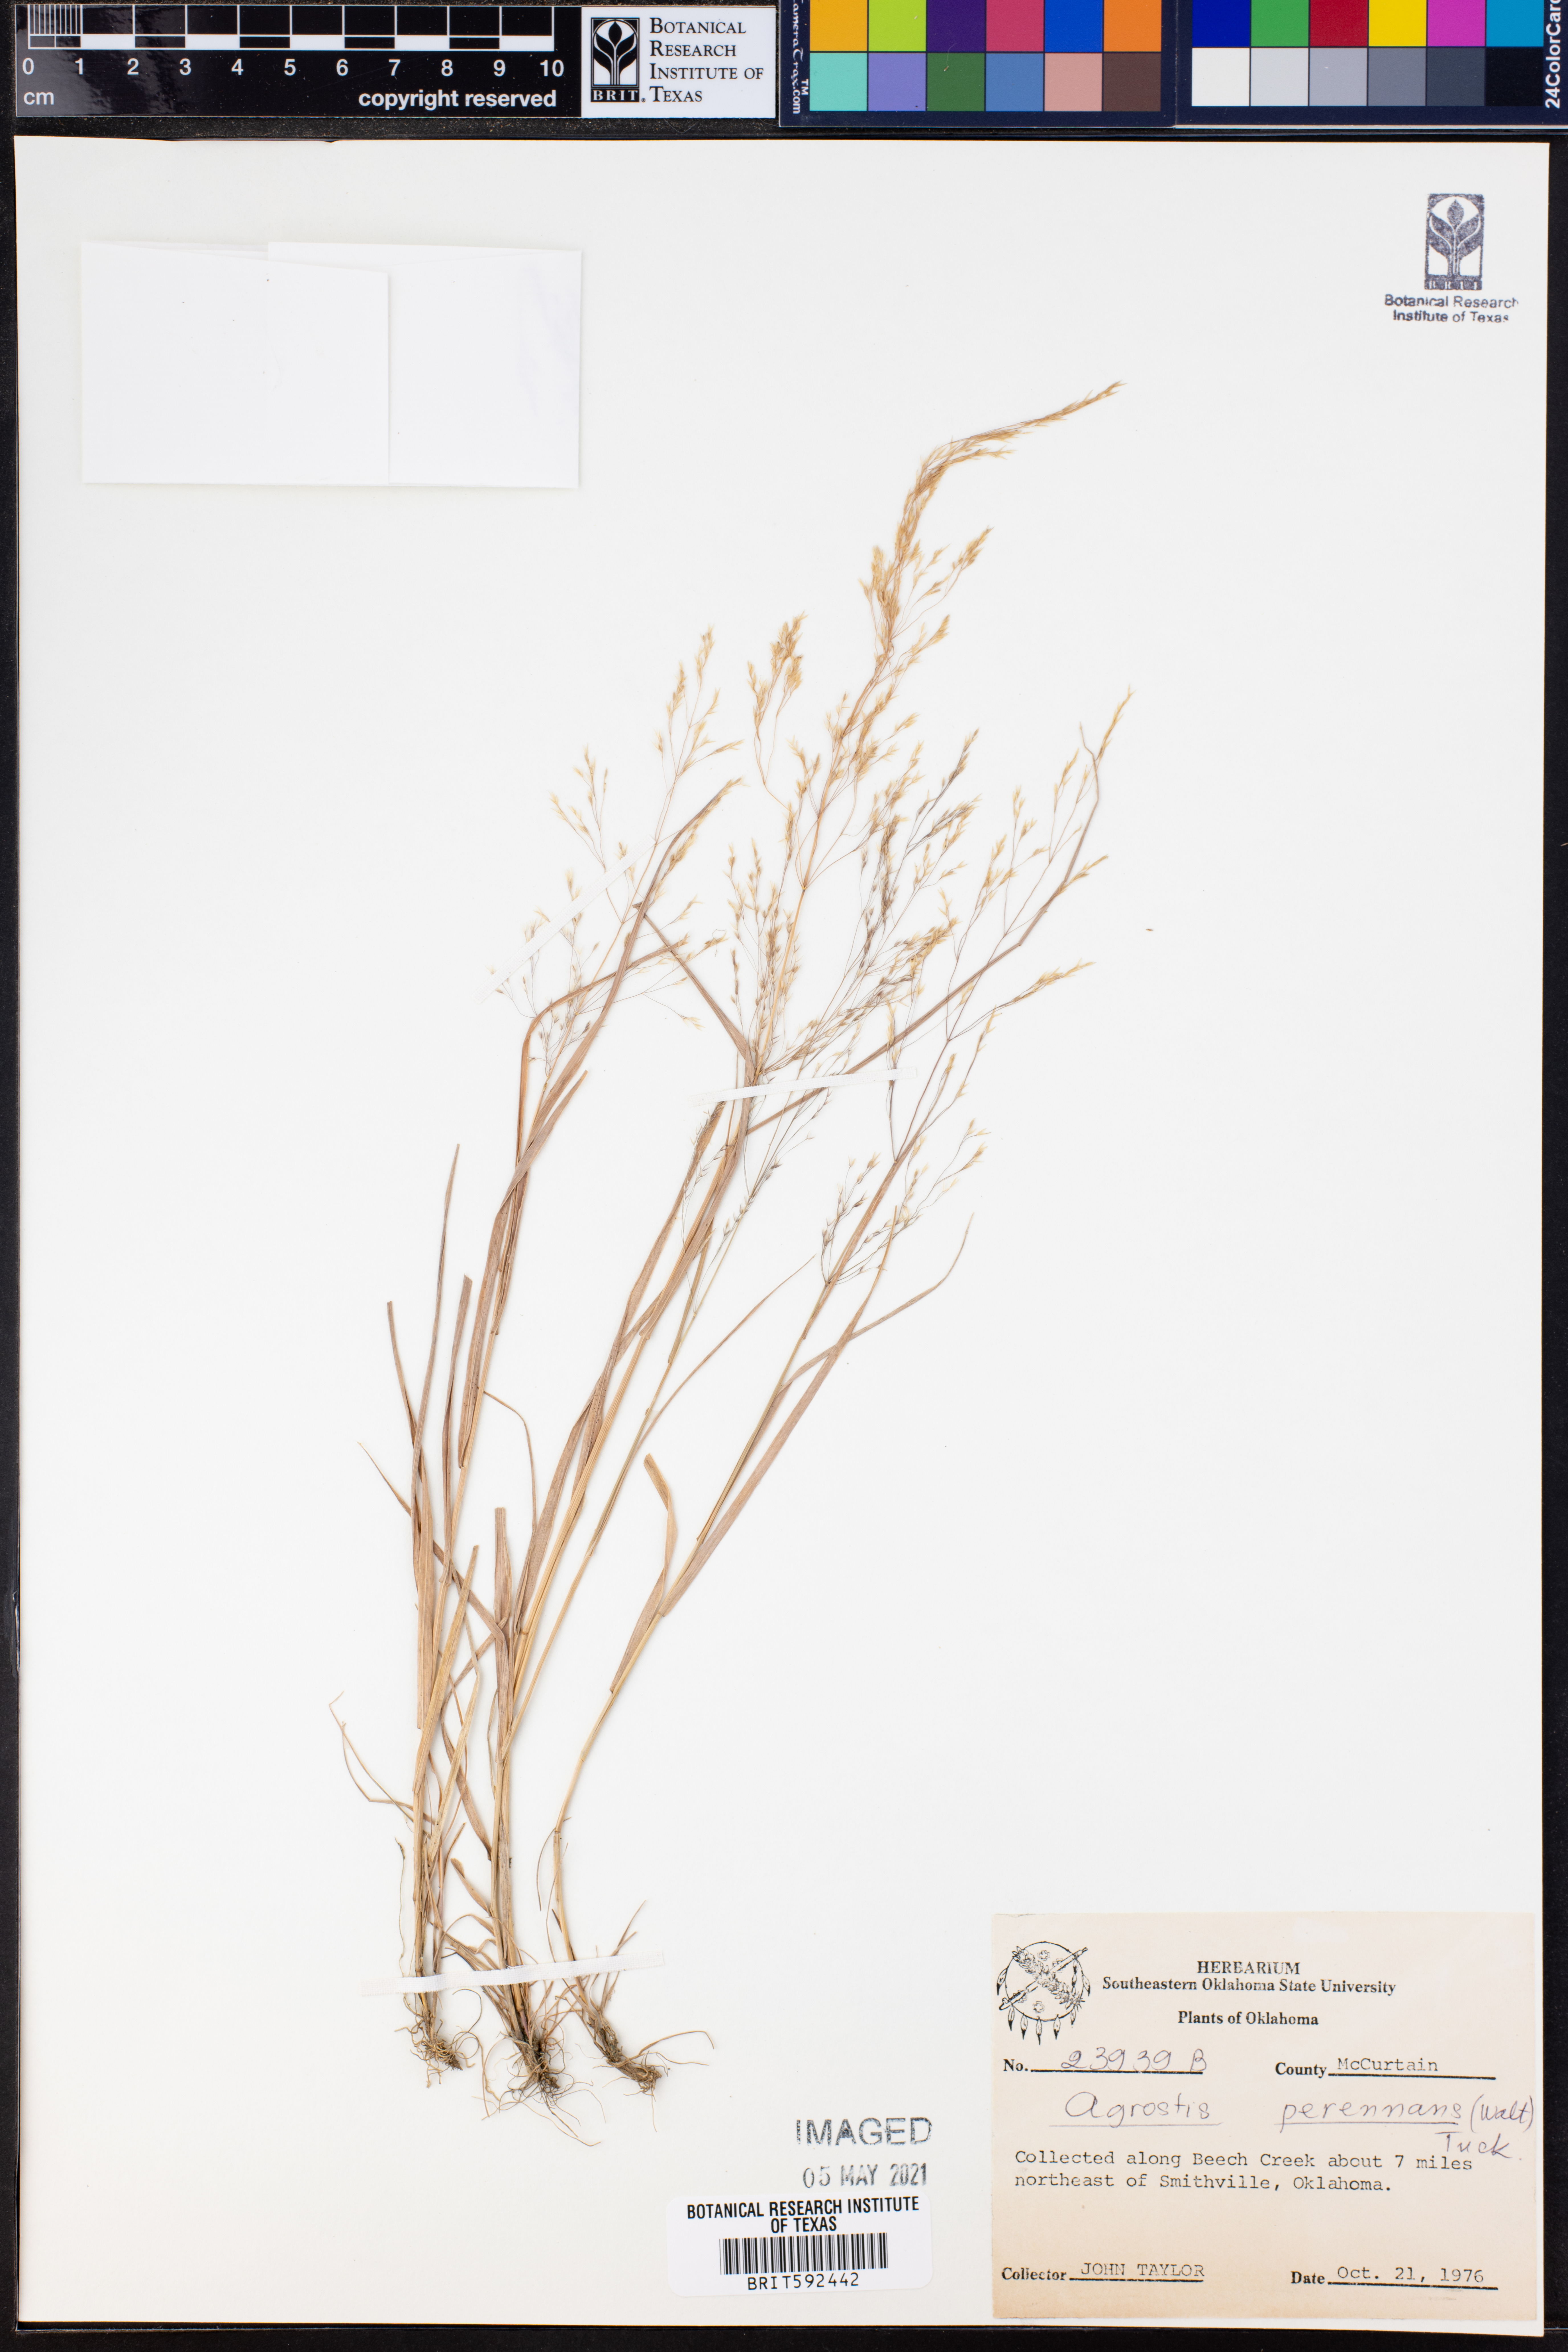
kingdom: Plantae
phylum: Tracheophyta
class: Liliopsida
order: Poales
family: Poaceae
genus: Agrostis
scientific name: Agrostis perennans
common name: Autumn bent
